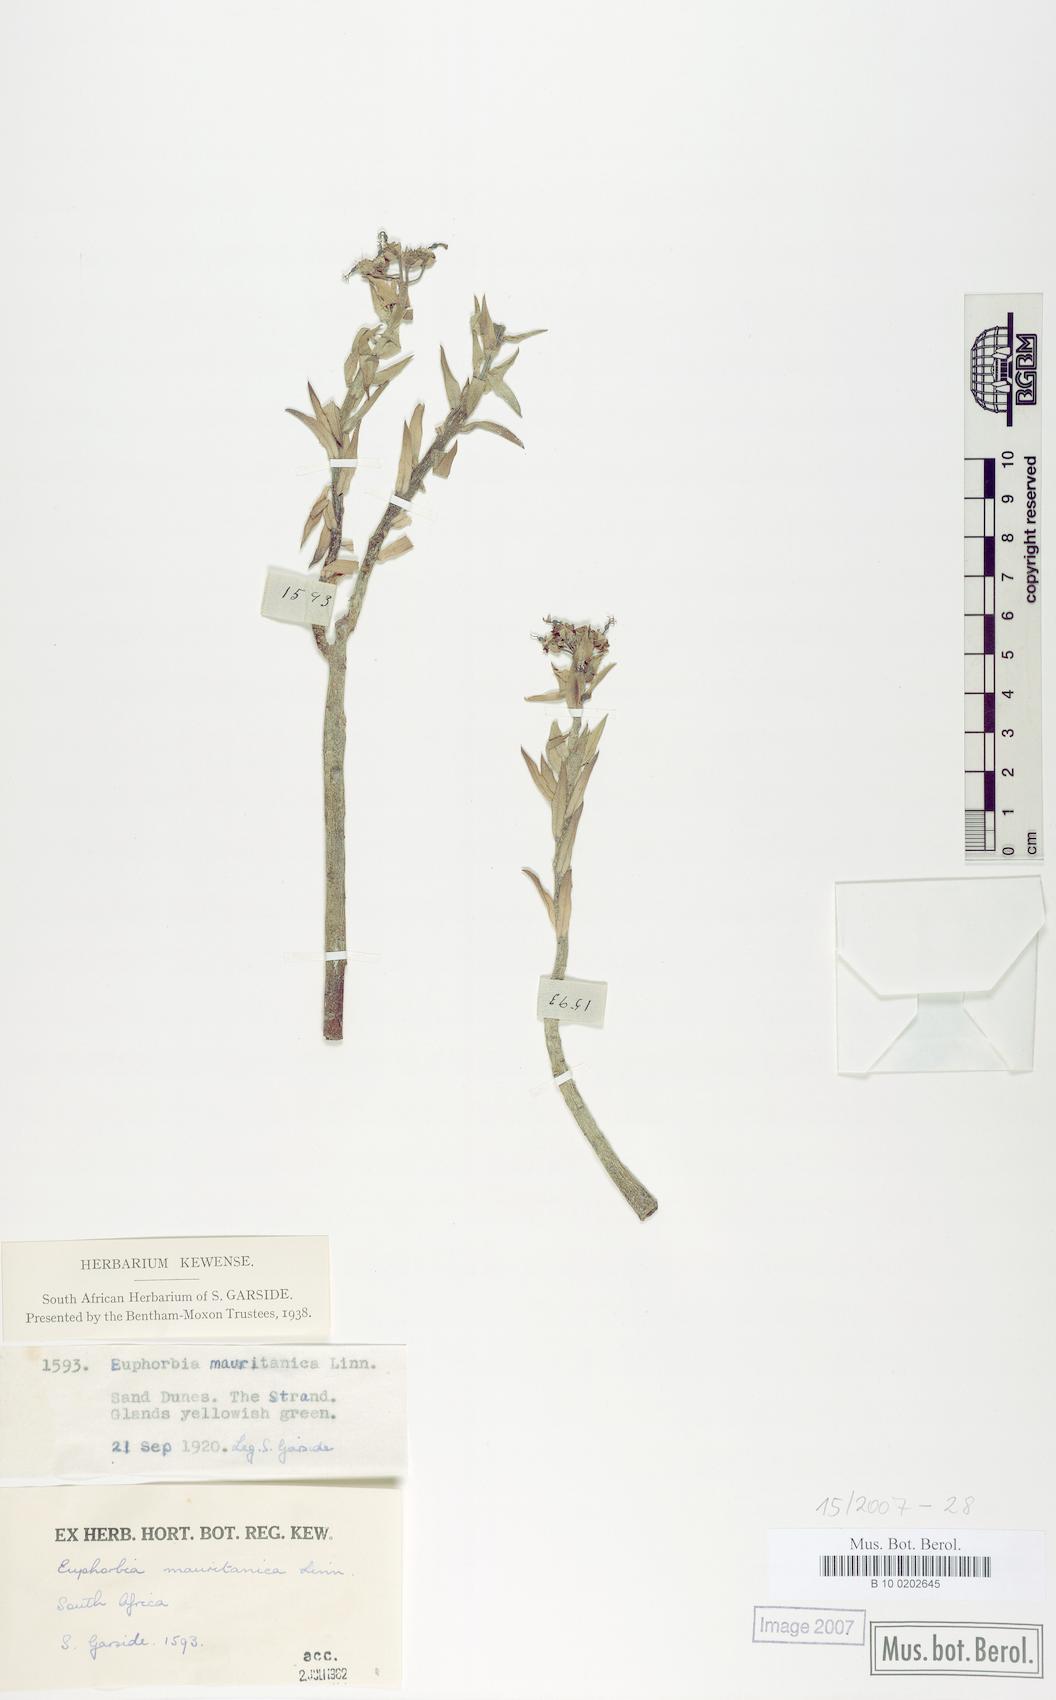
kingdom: Plantae
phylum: Tracheophyta
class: Magnoliopsida
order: Malpighiales
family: Euphorbiaceae
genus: Euphorbia
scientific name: Euphorbia mauritanica
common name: Jackal's-food
